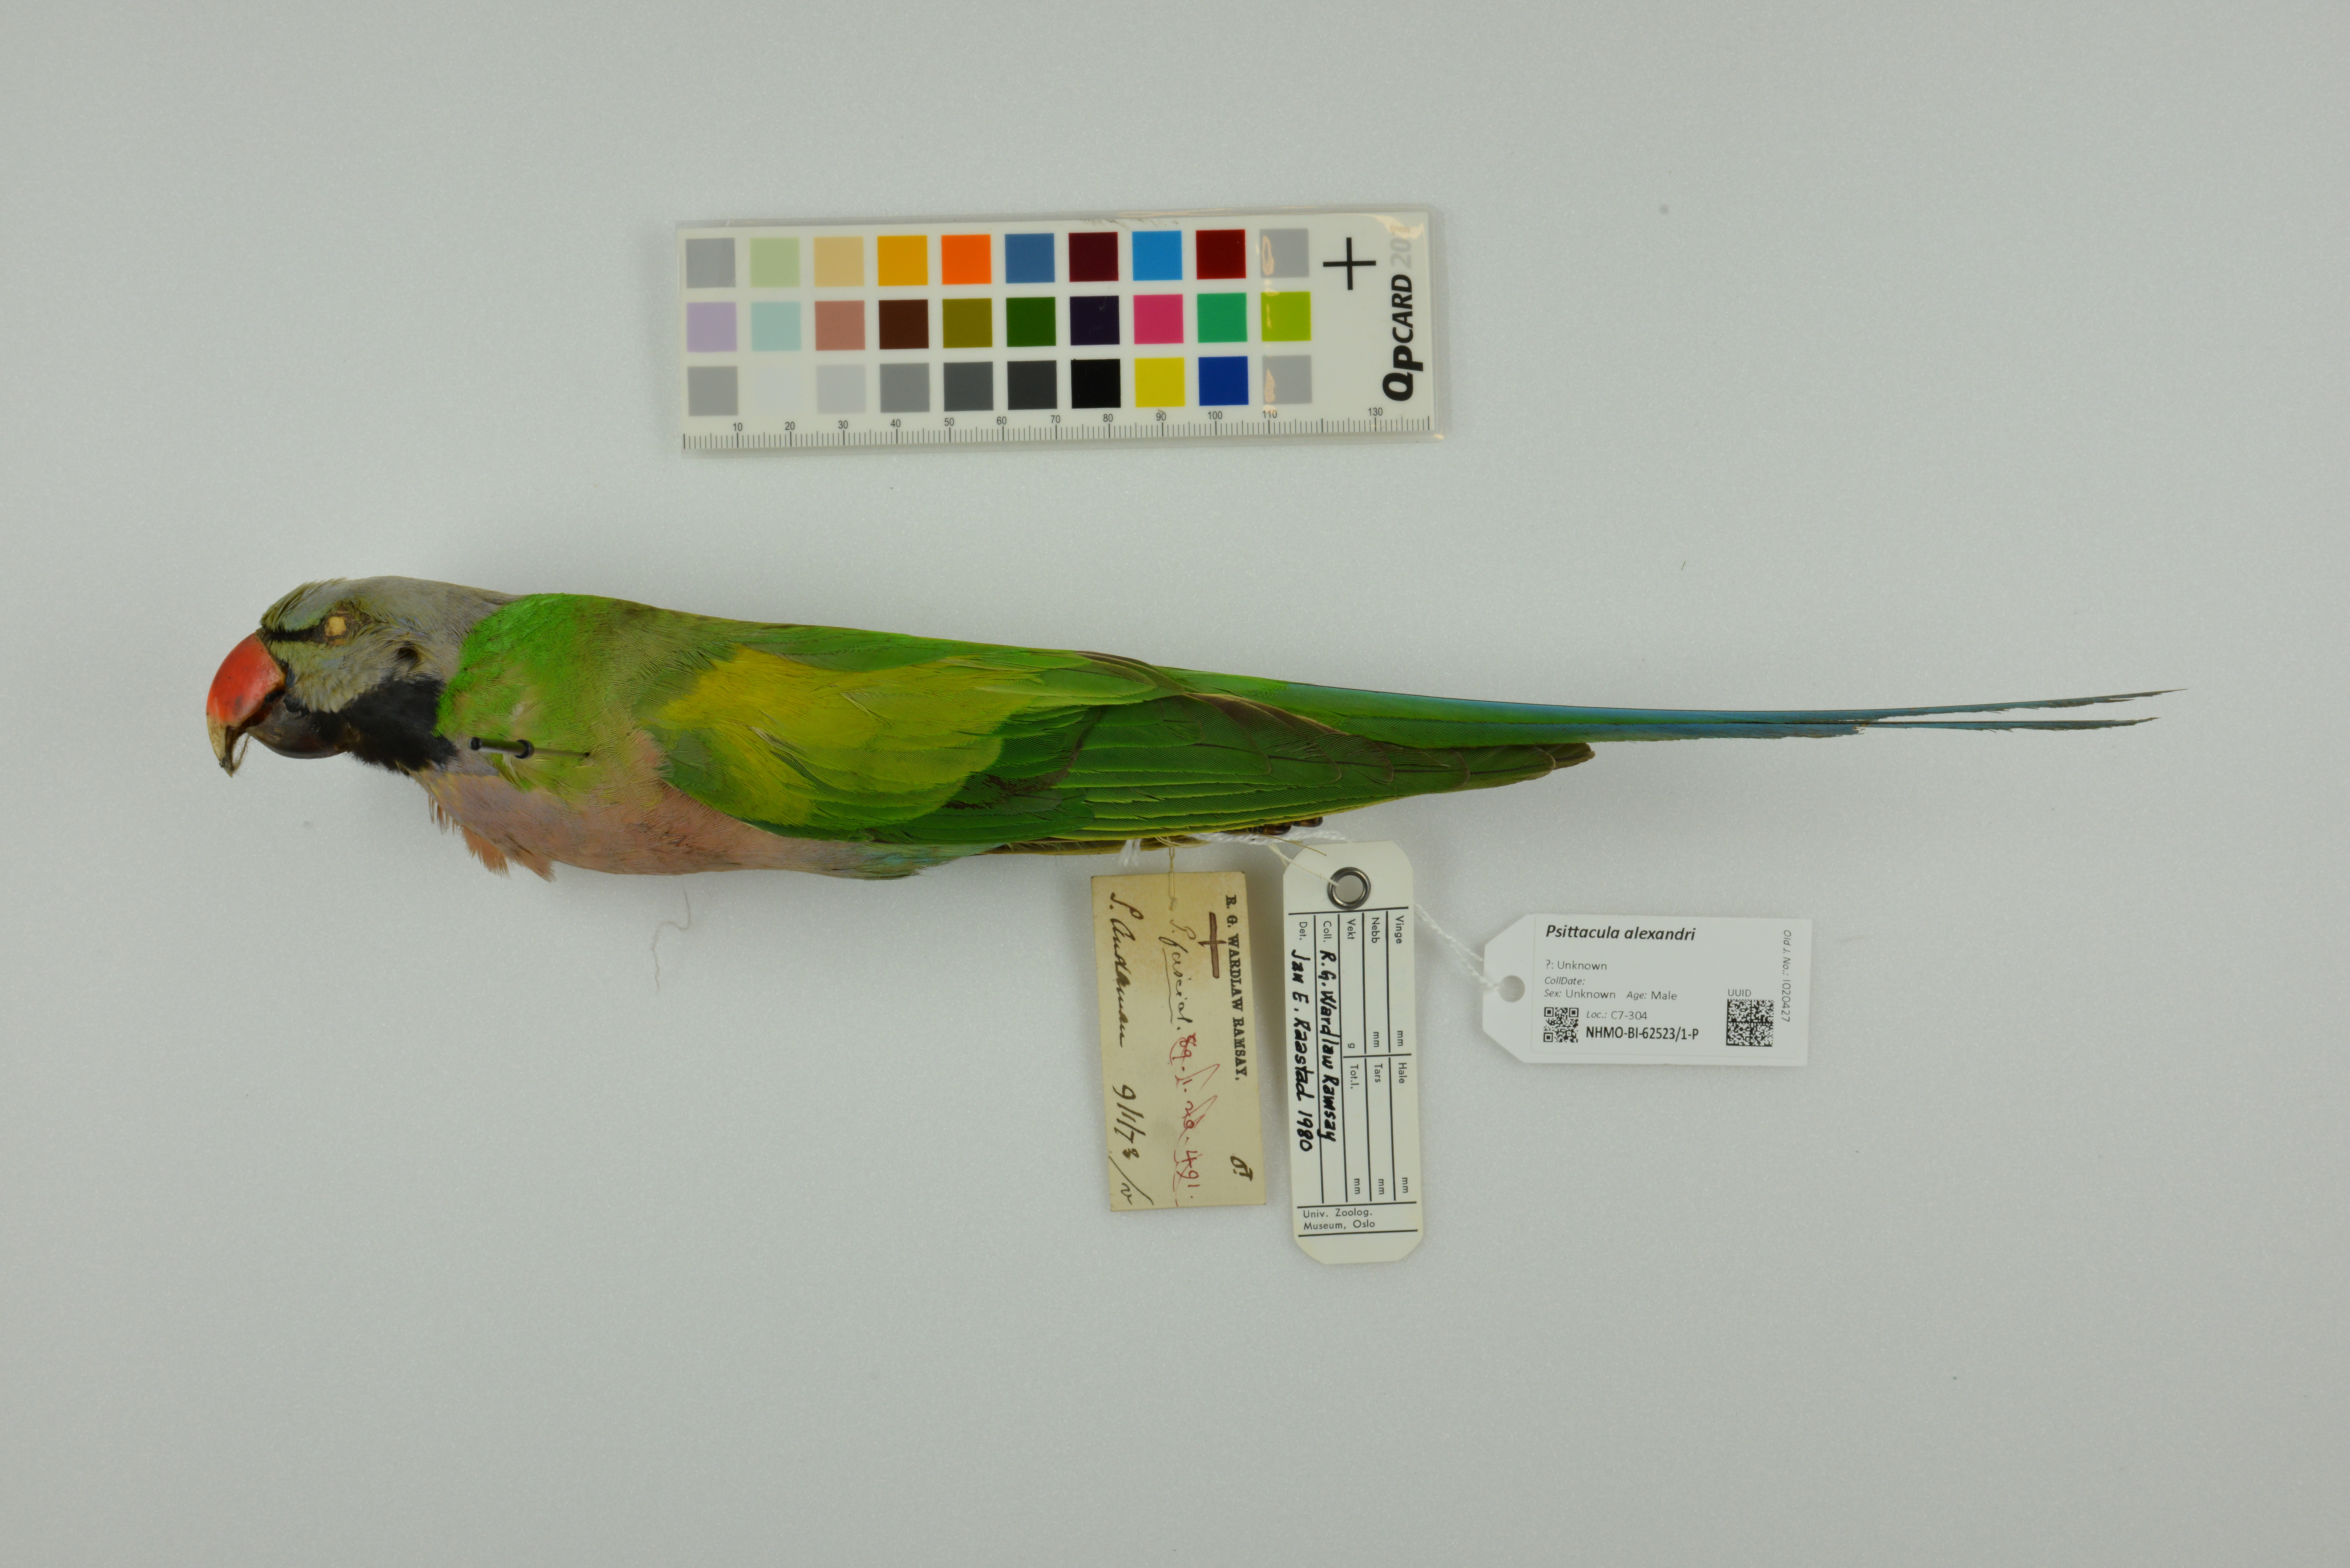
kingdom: Animalia
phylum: Chordata
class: Aves
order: Psittaciformes
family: Psittacidae
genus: Psittacula
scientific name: Psittacula alexandri
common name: Red-breasted parakeet
